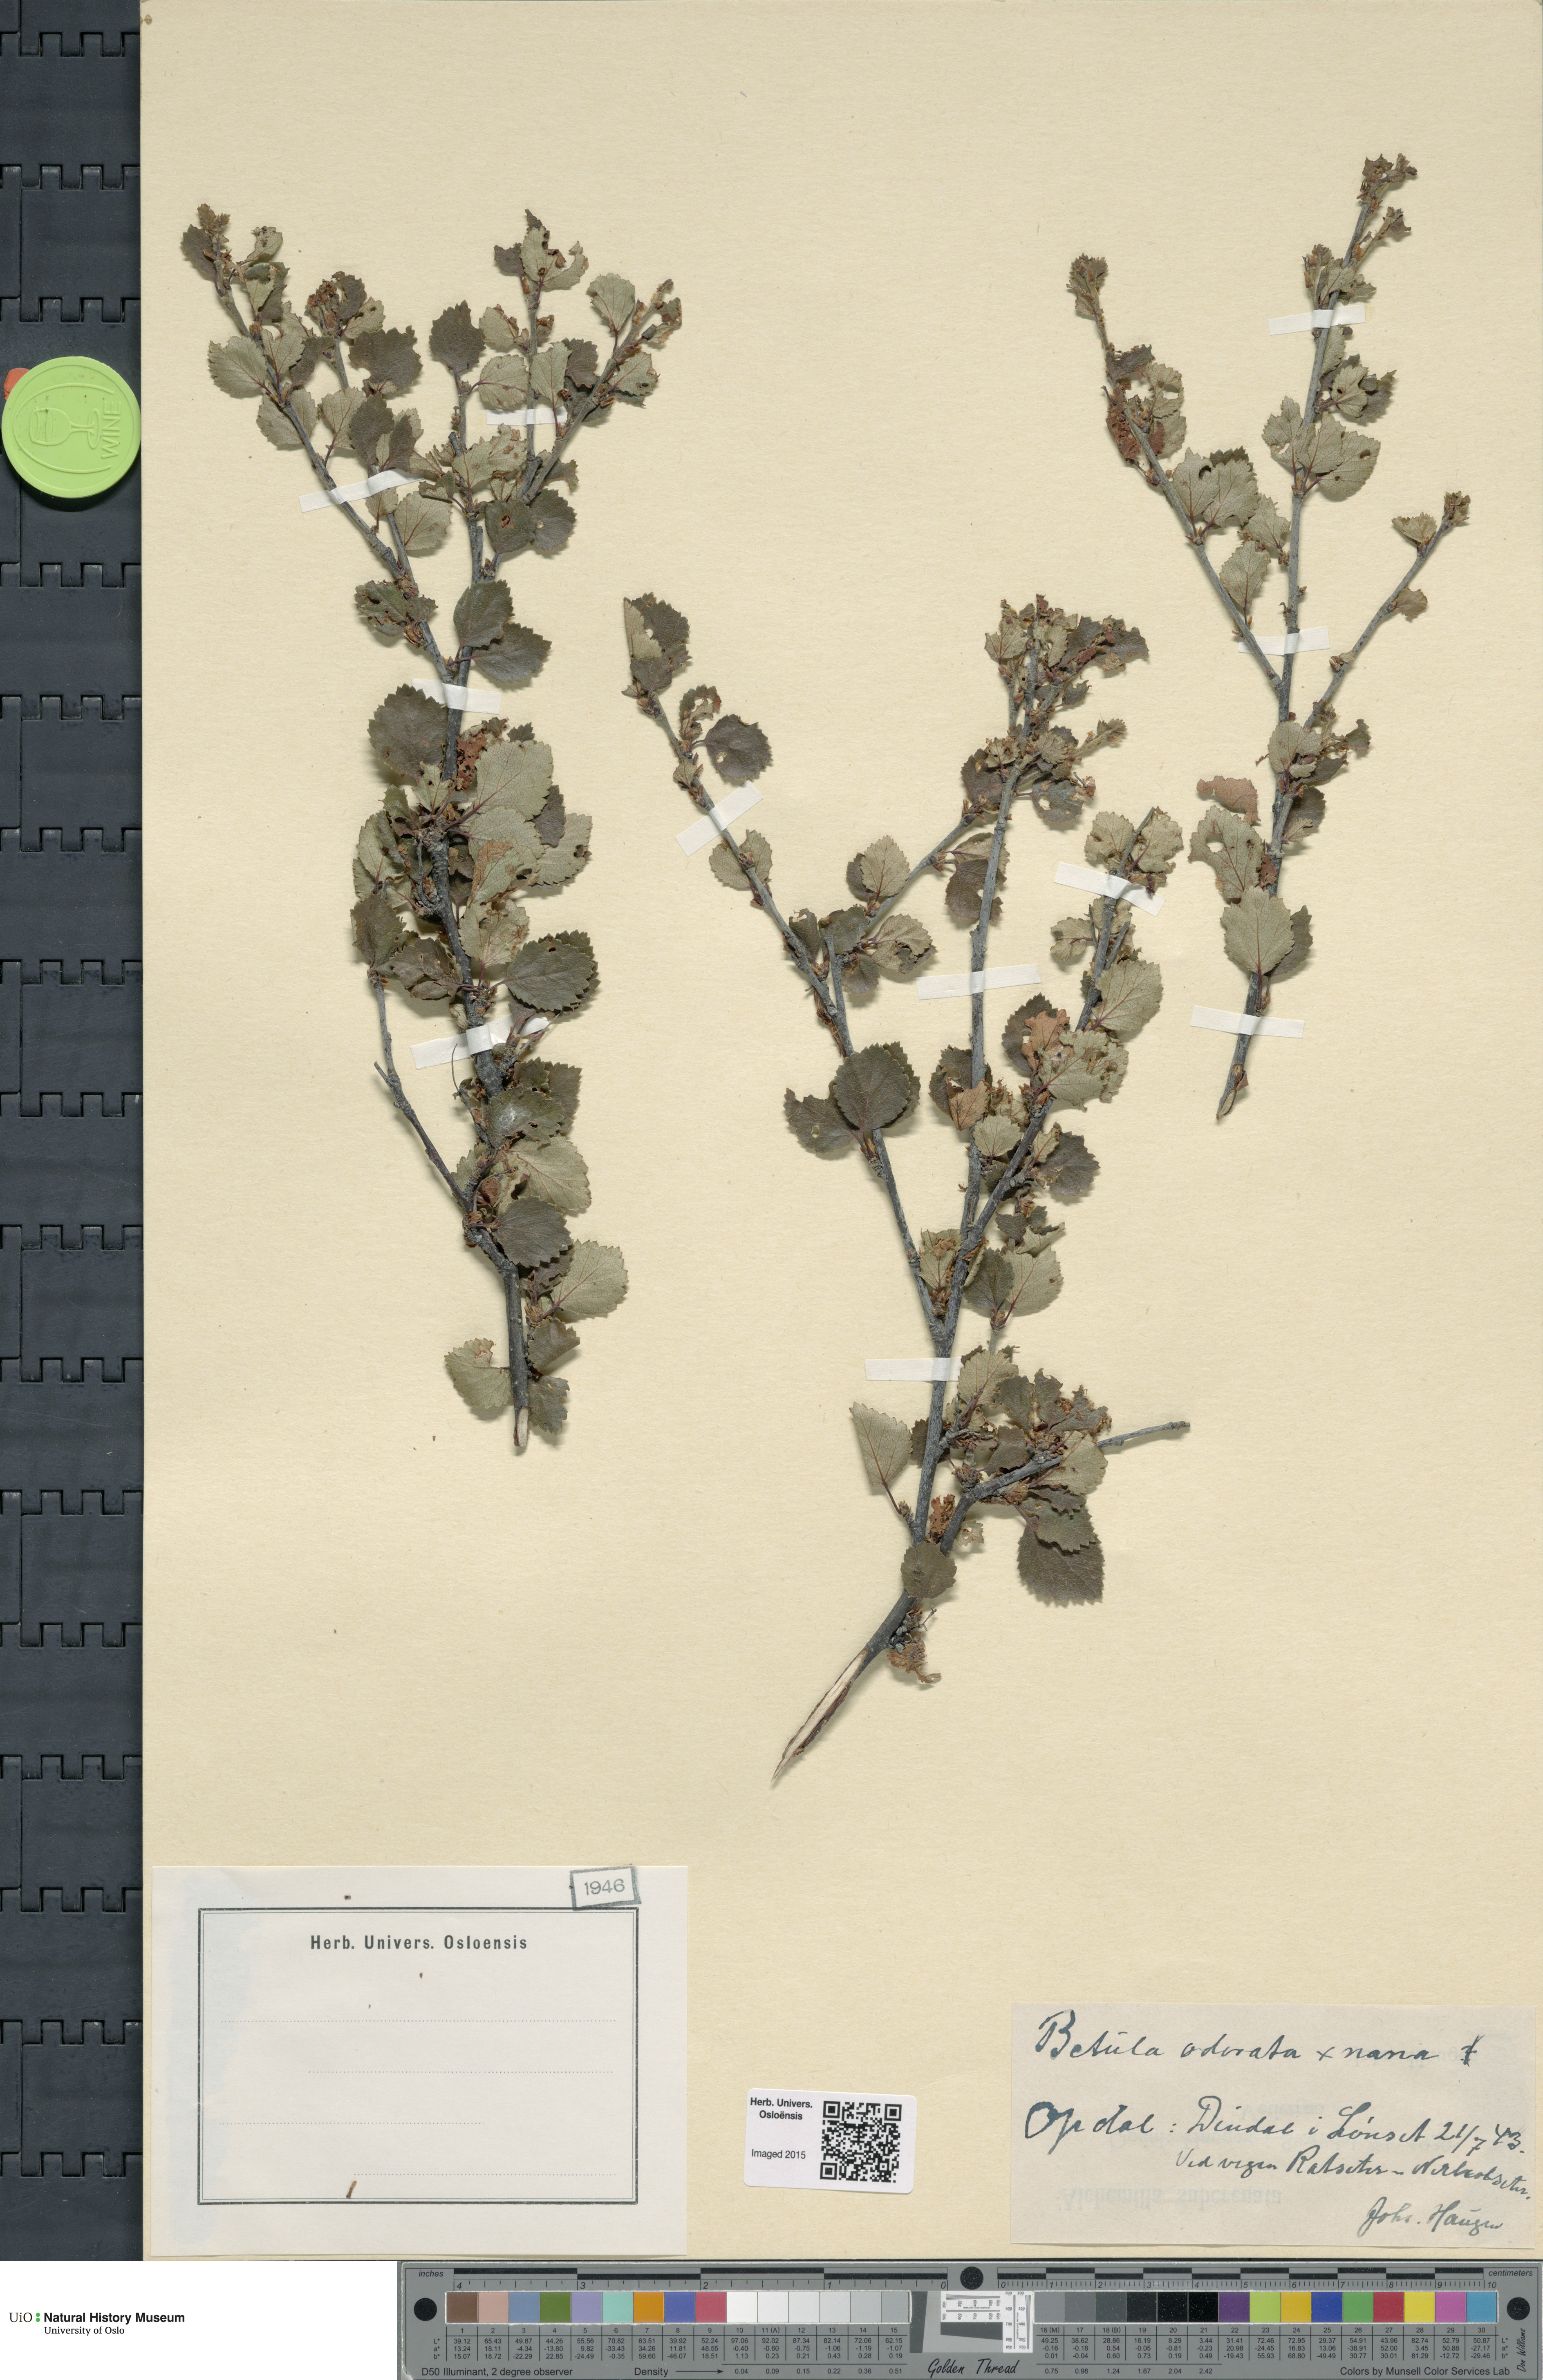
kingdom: Plantae
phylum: Tracheophyta
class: Magnoliopsida
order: Fagales
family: Betulaceae
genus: Betula
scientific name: Betula pubescens
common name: Downy birch
